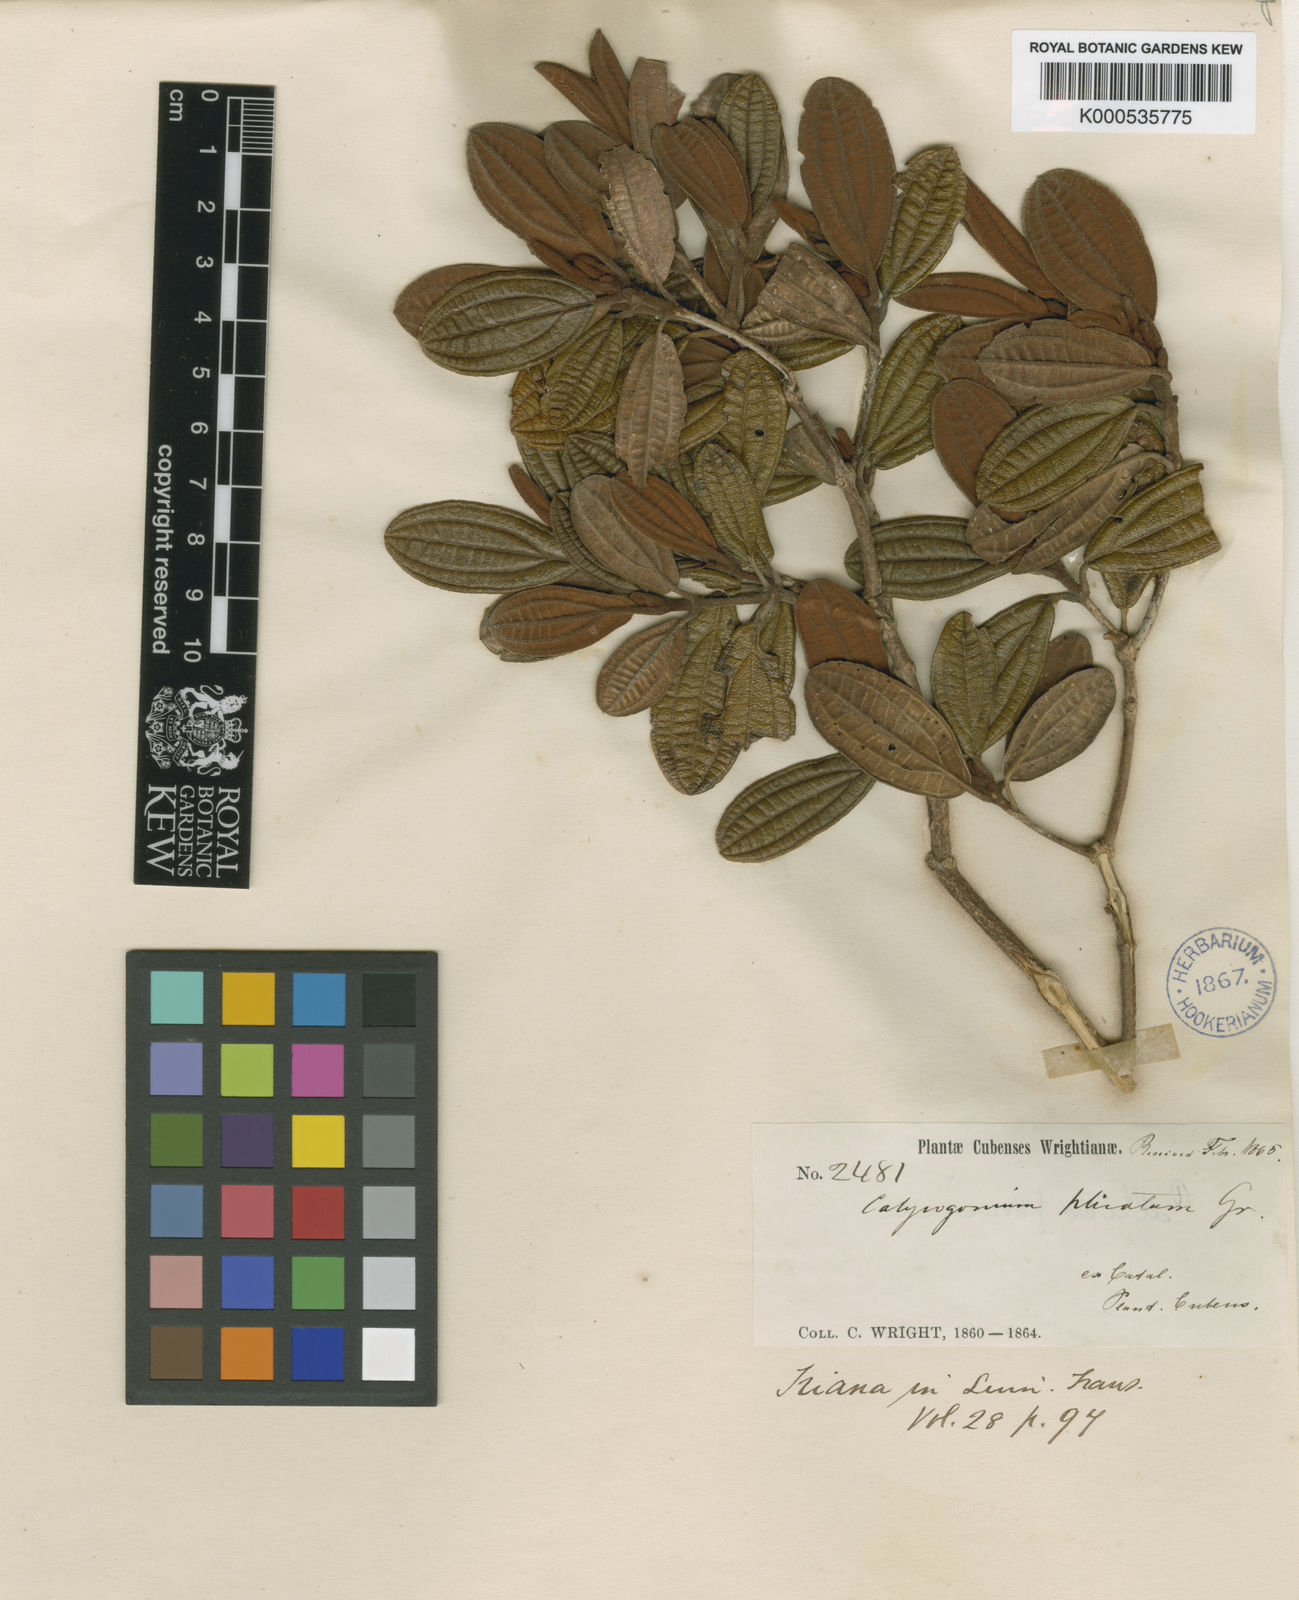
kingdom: Plantae
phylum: Tracheophyta
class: Magnoliopsida
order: Myrtales
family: Melastomataceae
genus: Miconia
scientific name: Miconia plicata
